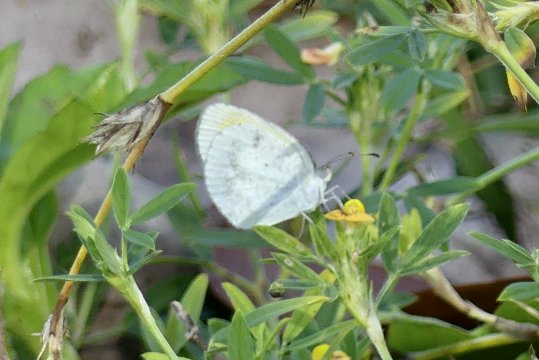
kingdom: Animalia
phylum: Arthropoda
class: Insecta
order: Lepidoptera
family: Pieridae
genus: Eurema
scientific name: Eurema daira
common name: Barred Yellow
